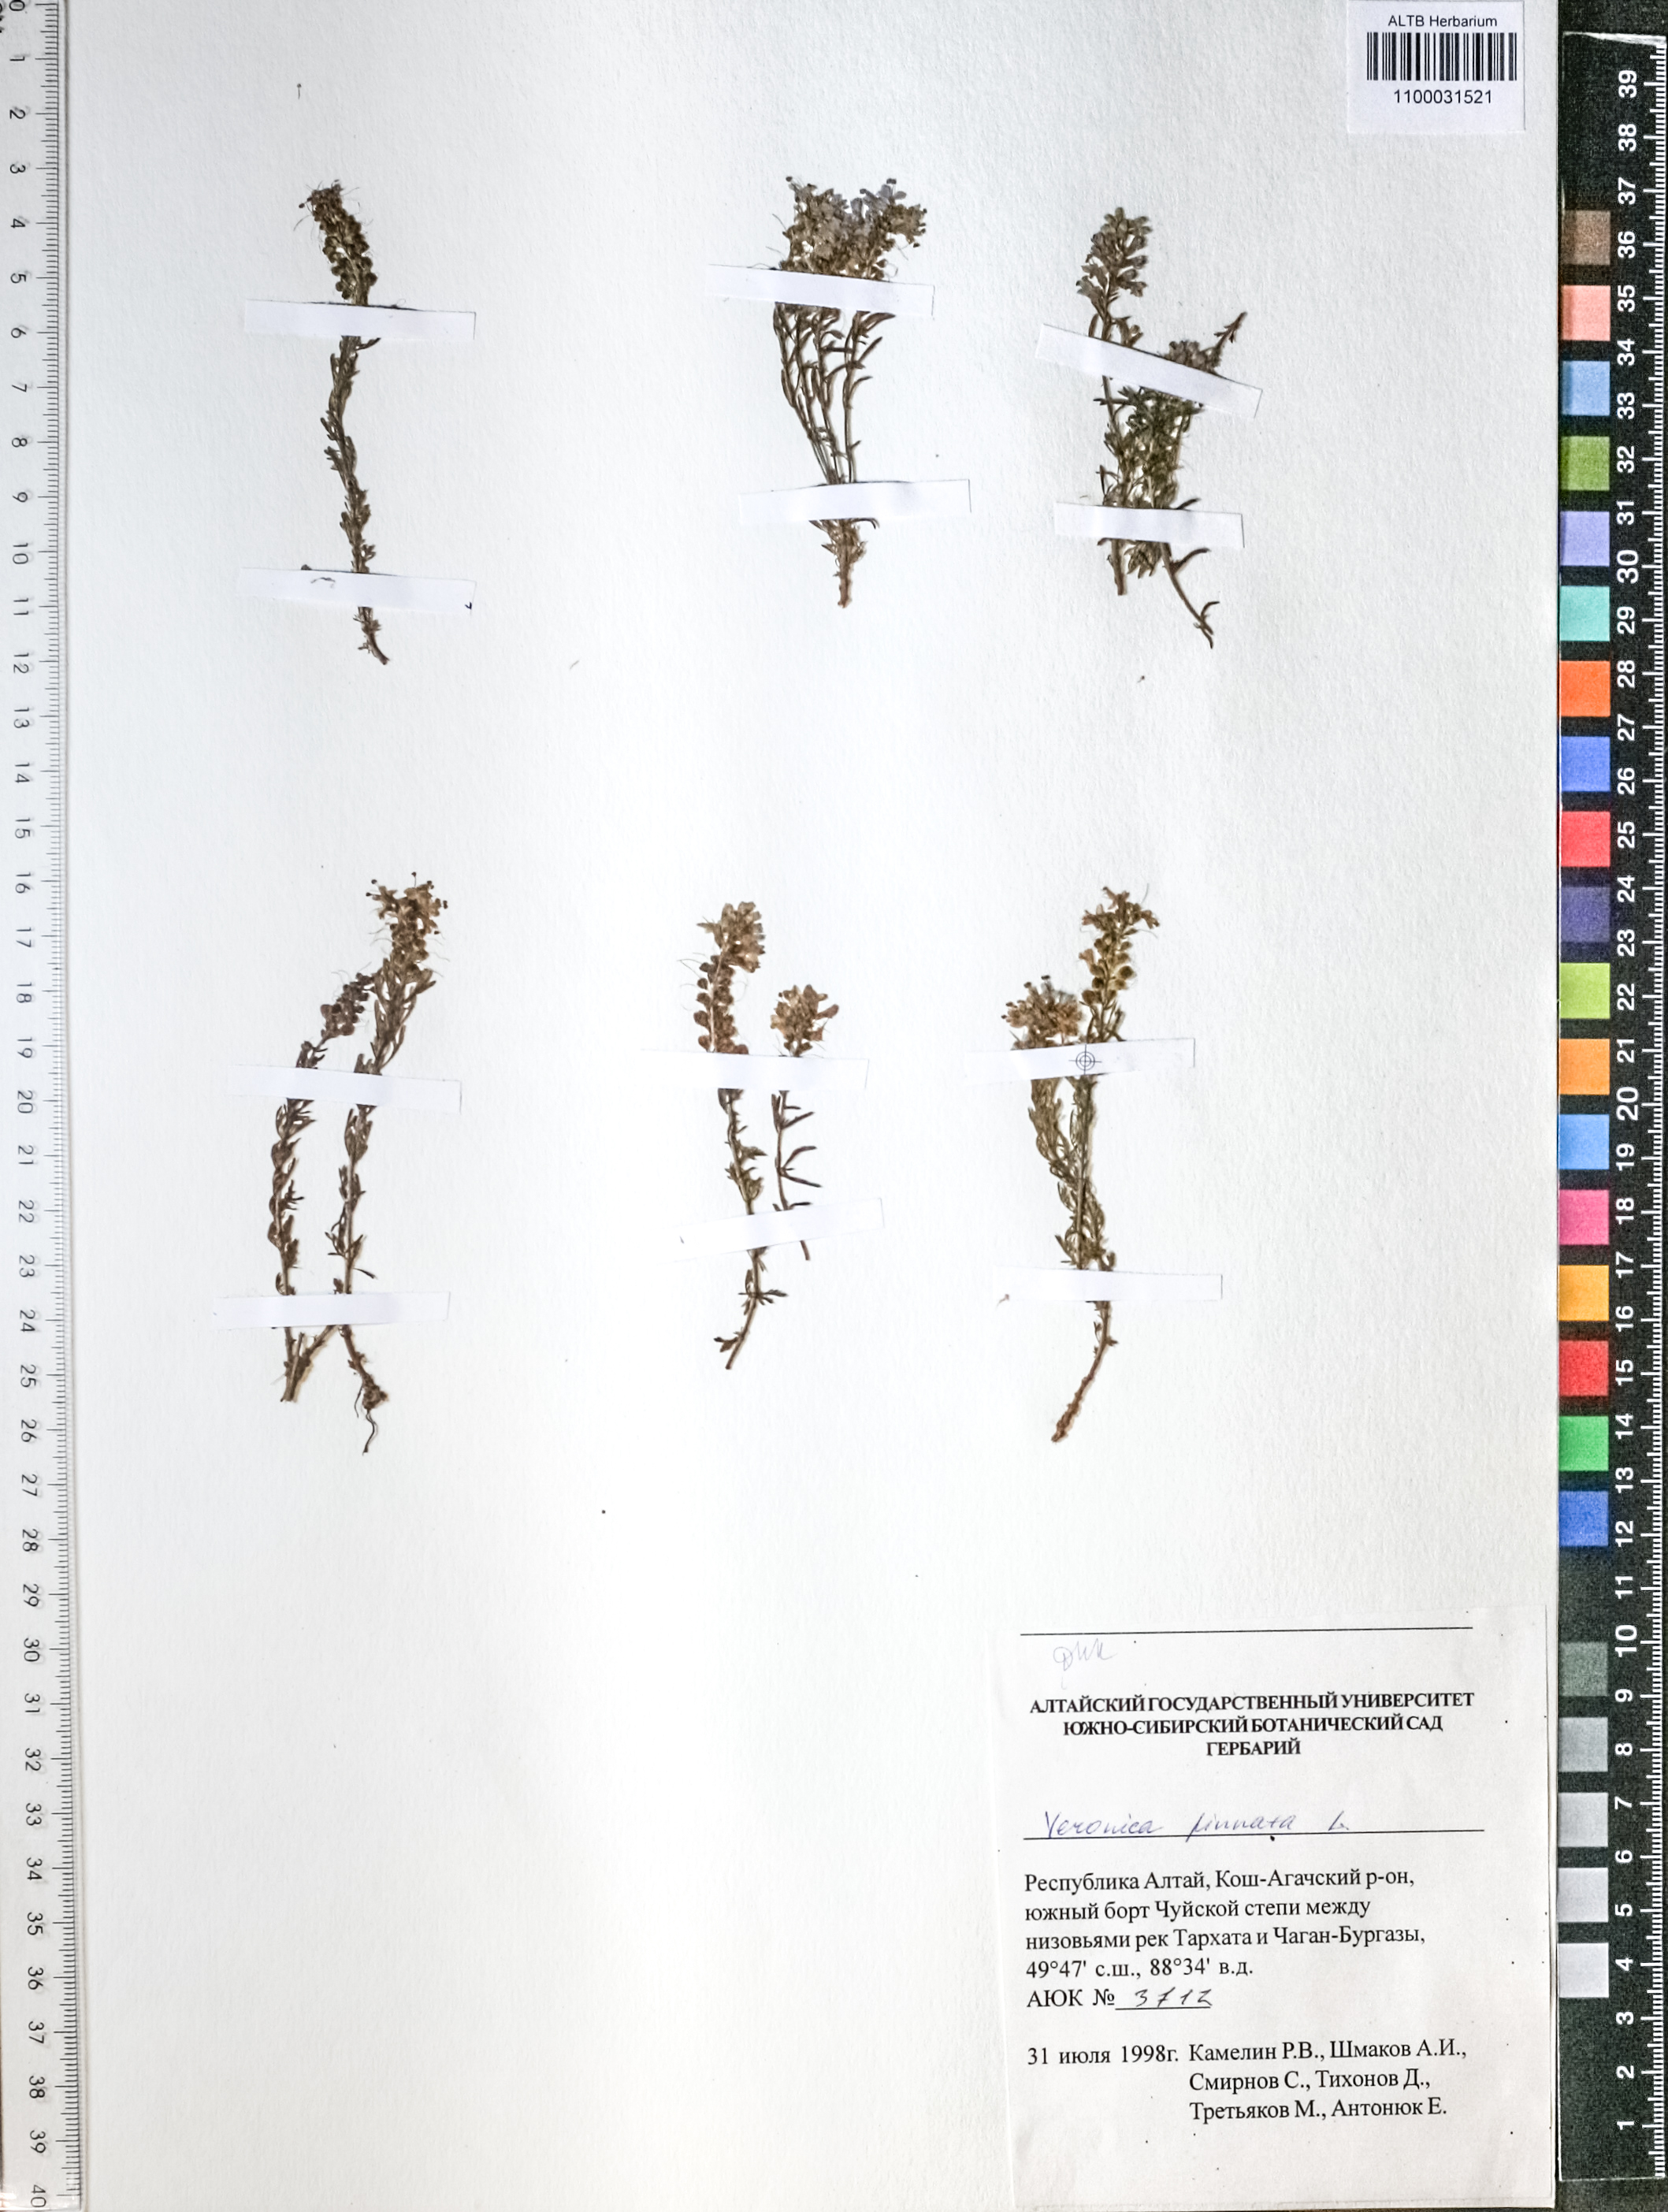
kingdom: Plantae
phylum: Tracheophyta
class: Magnoliopsida
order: Lamiales
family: Plantaginaceae
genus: Veronica
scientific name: Veronica pinnata
